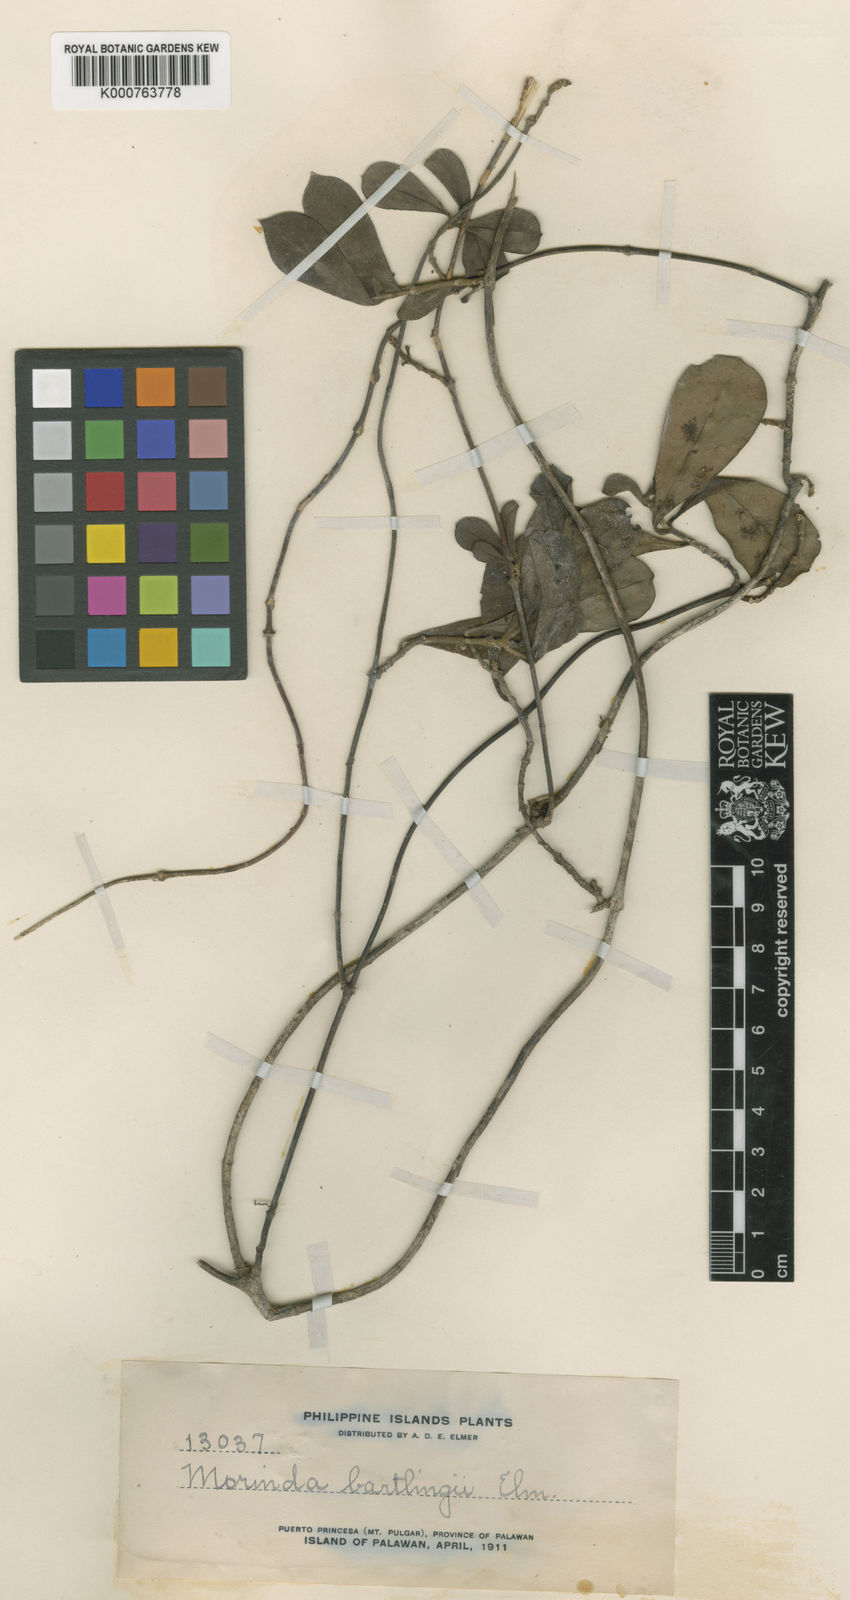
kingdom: Plantae
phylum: Tracheophyta
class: Magnoliopsida
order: Gentianales
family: Rubiaceae
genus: Gynochthodes
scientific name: Gynochthodes bartlingii
